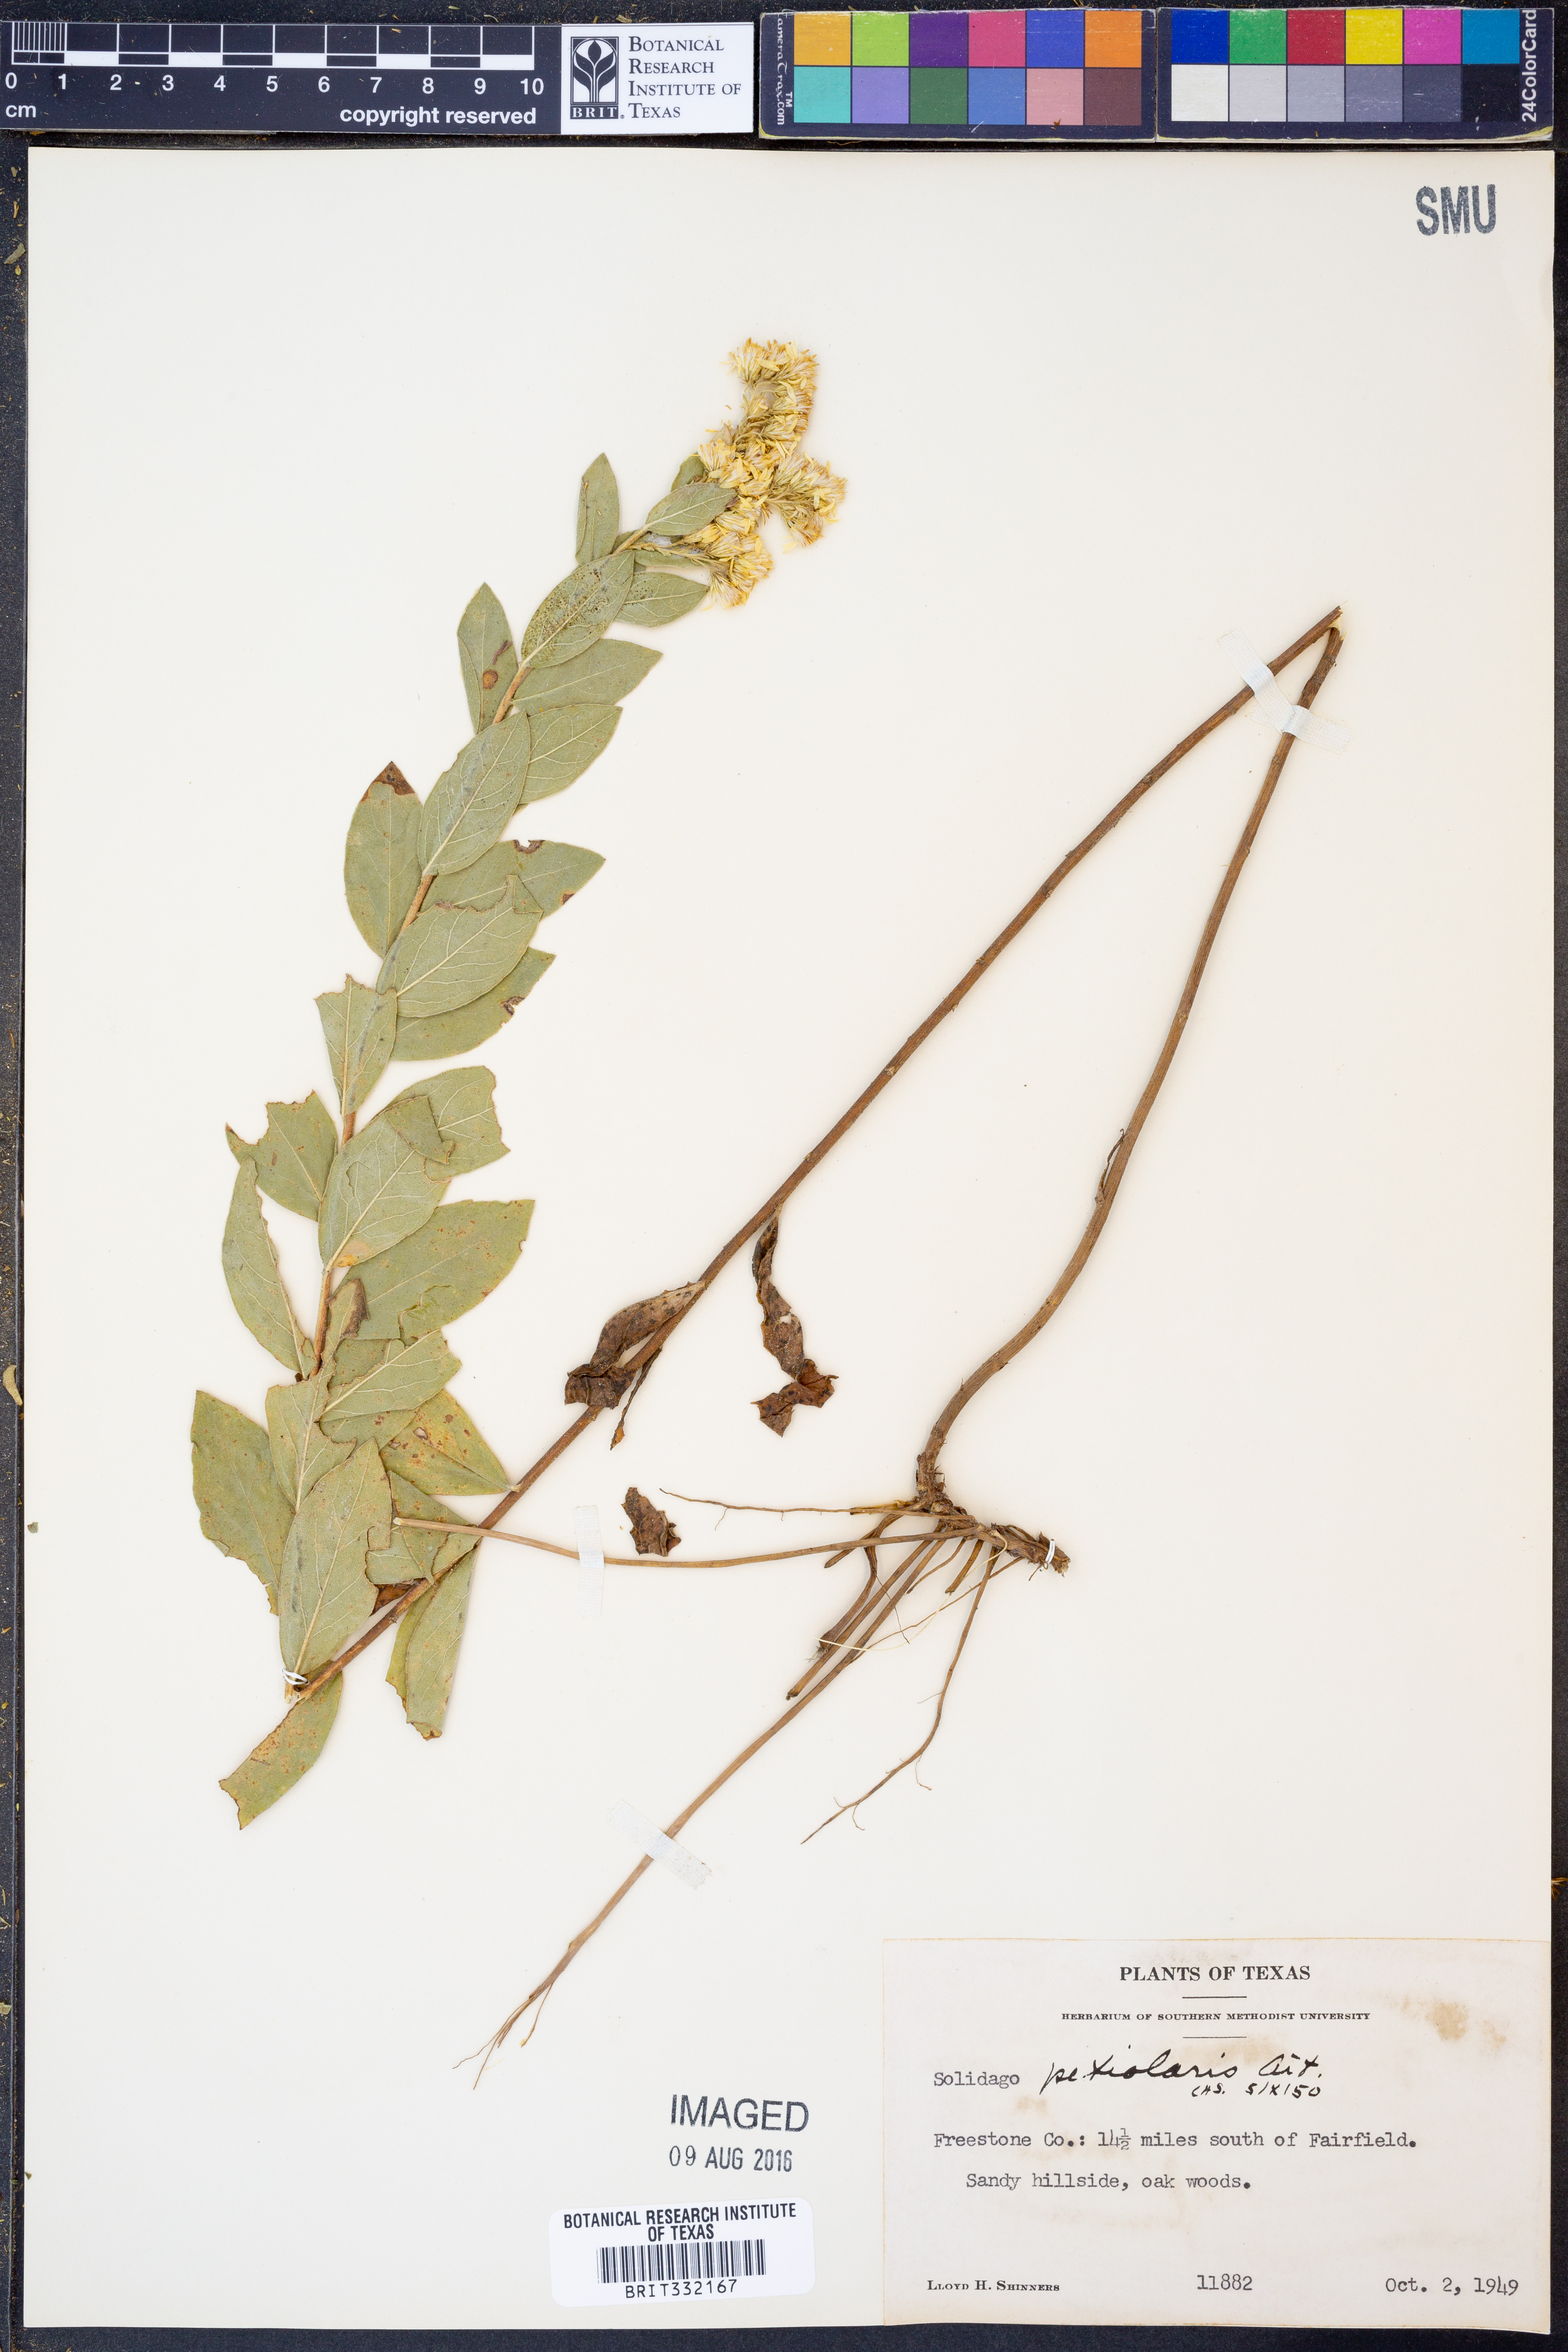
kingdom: Plantae
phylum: Tracheophyta
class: Magnoliopsida
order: Asterales
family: Asteraceae
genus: Solidago
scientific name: Solidago petiolaris
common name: Downy ragged goldenrod
